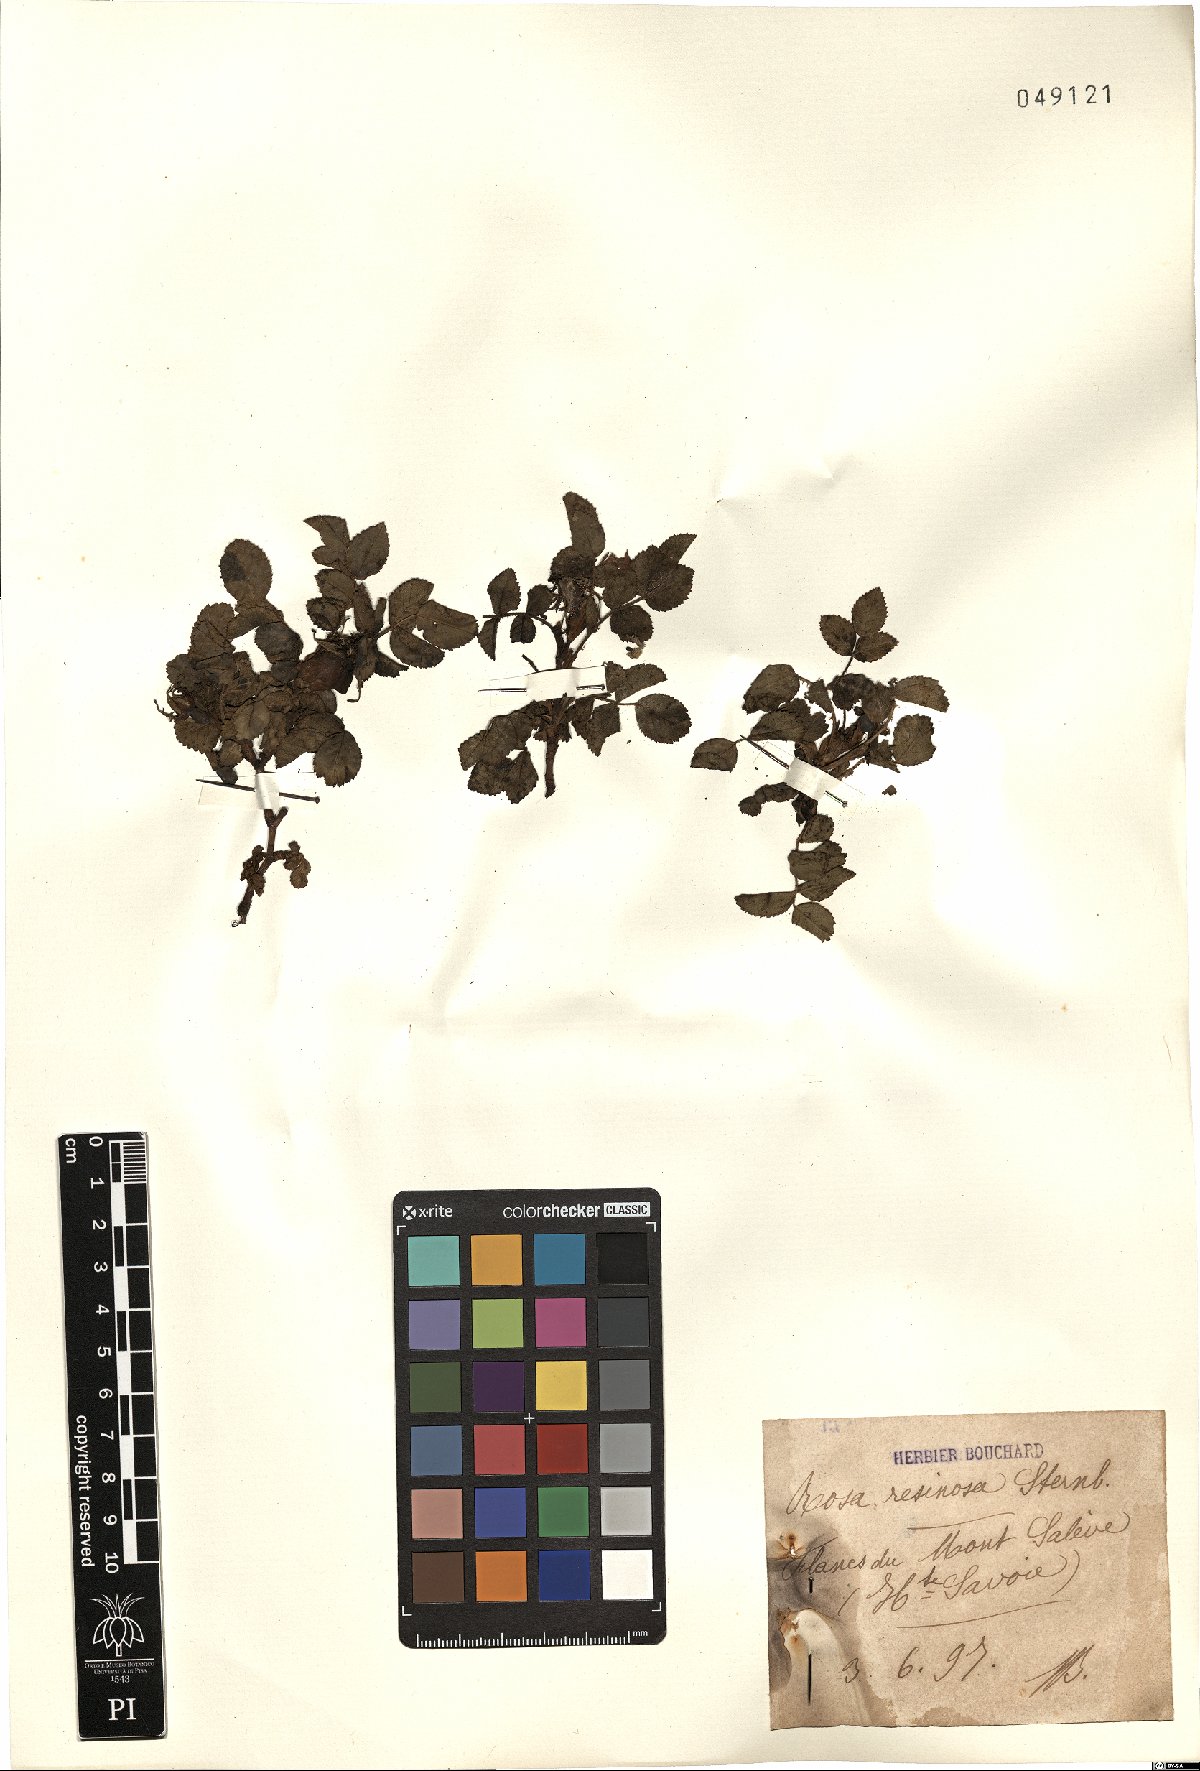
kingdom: Plantae
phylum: Tracheophyta
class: Magnoliopsida
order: Rosales
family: Rosaceae
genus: Rosa
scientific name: Rosa villosa
